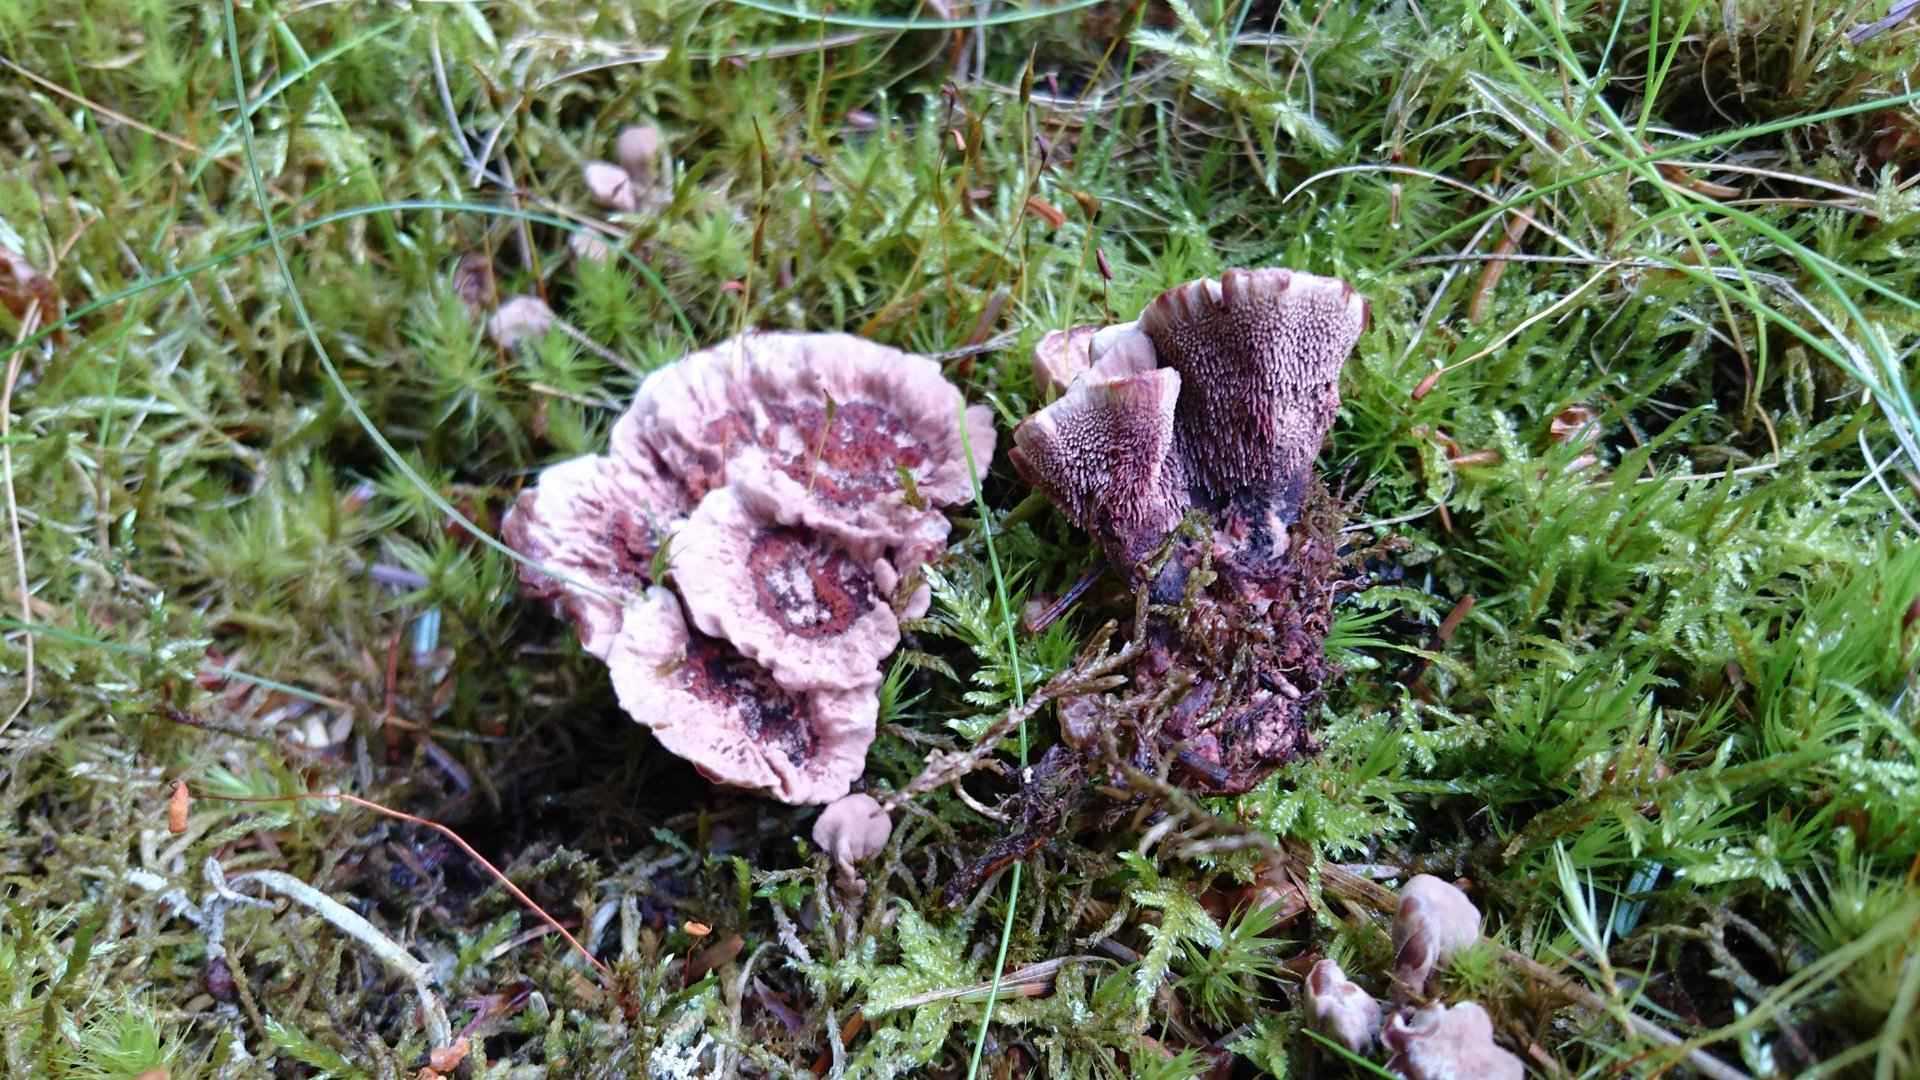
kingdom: Fungi
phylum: Basidiomycota
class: Agaricomycetes
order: Thelephorales
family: Bankeraceae
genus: Hydnellum
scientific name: Hydnellum concrescens
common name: bæltet korkpigsvamp
